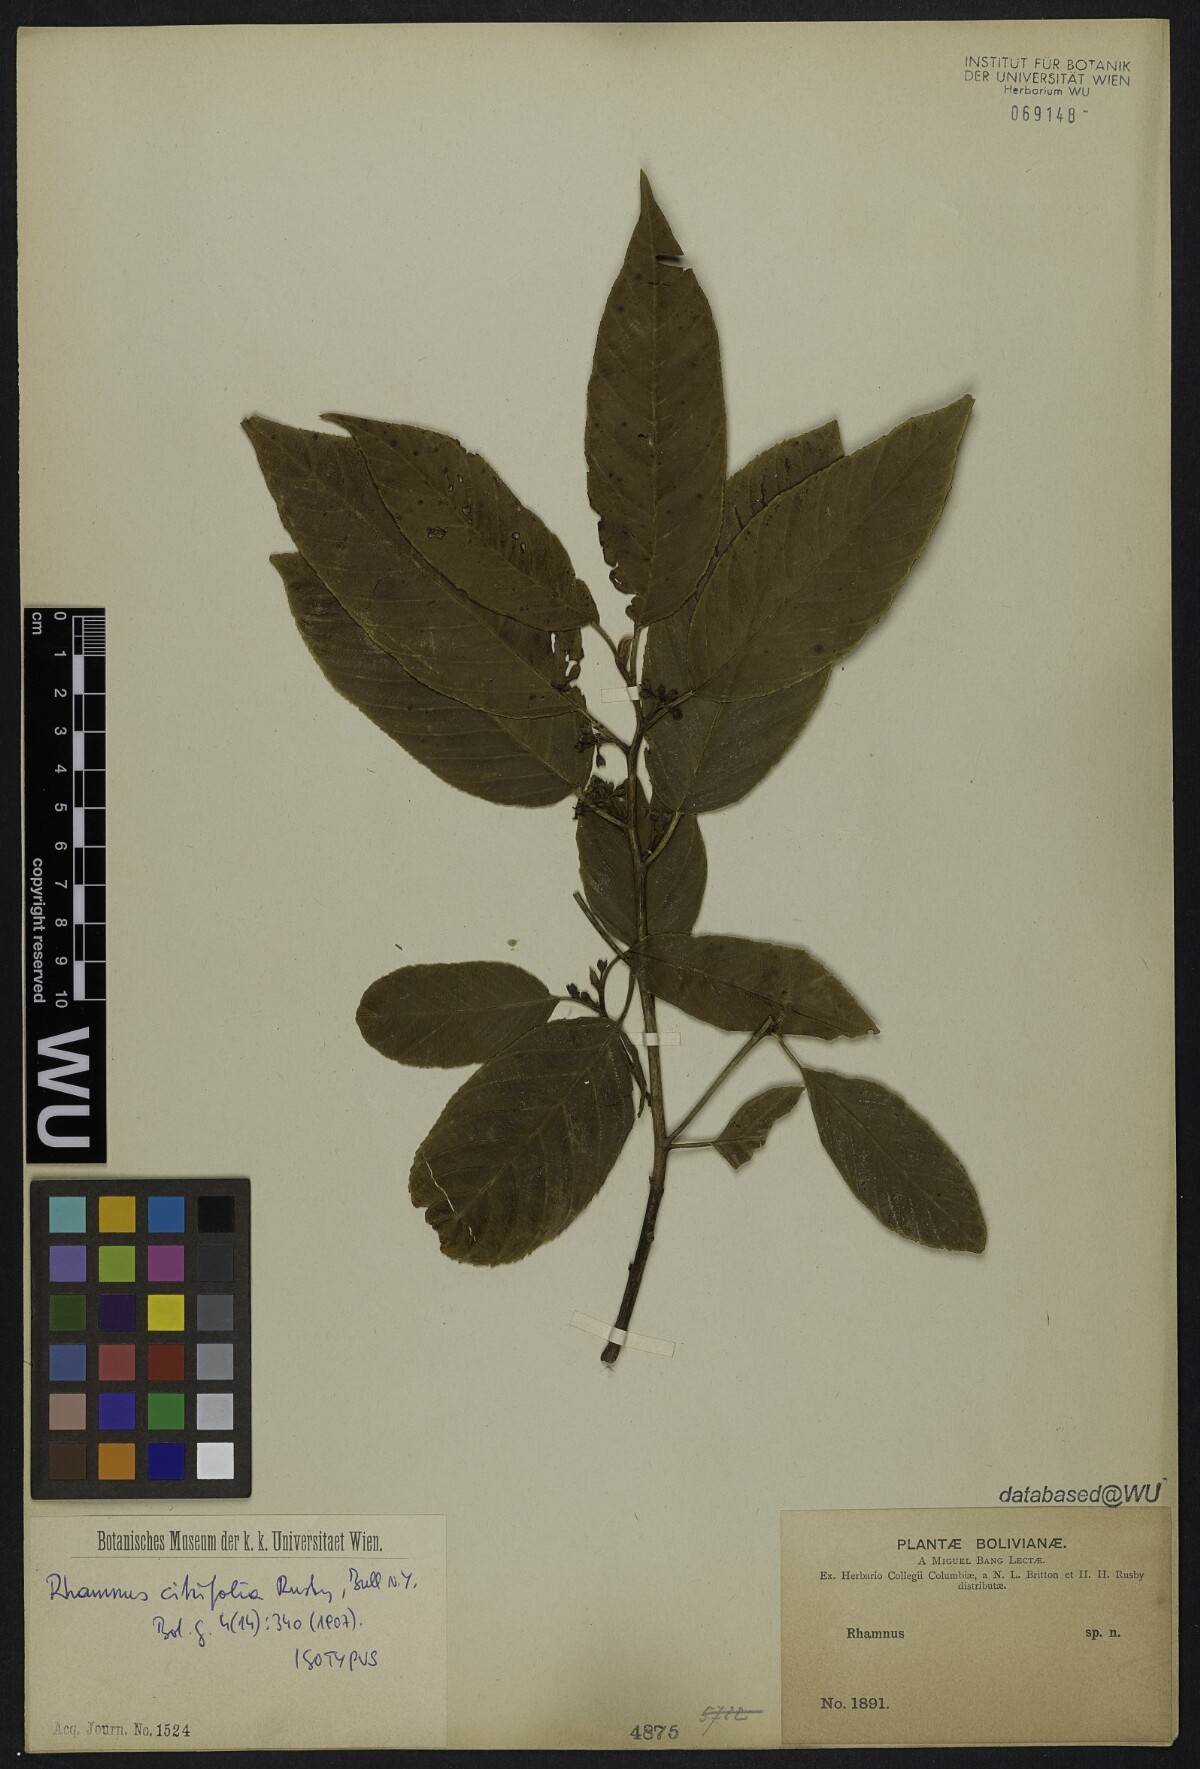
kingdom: Plantae
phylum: Tracheophyta
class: Magnoliopsida
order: Rosales
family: Rhamnaceae
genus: Frangula
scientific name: Frangula pubescens
